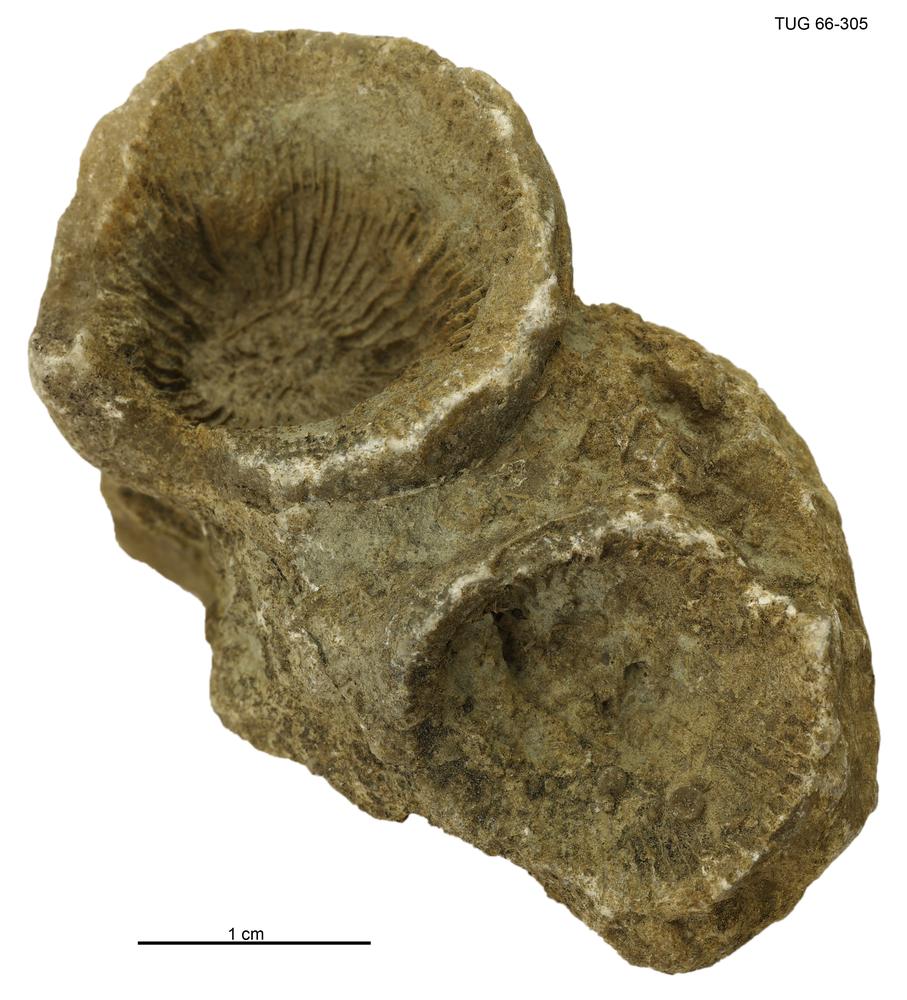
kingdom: Animalia
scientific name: Animalia
